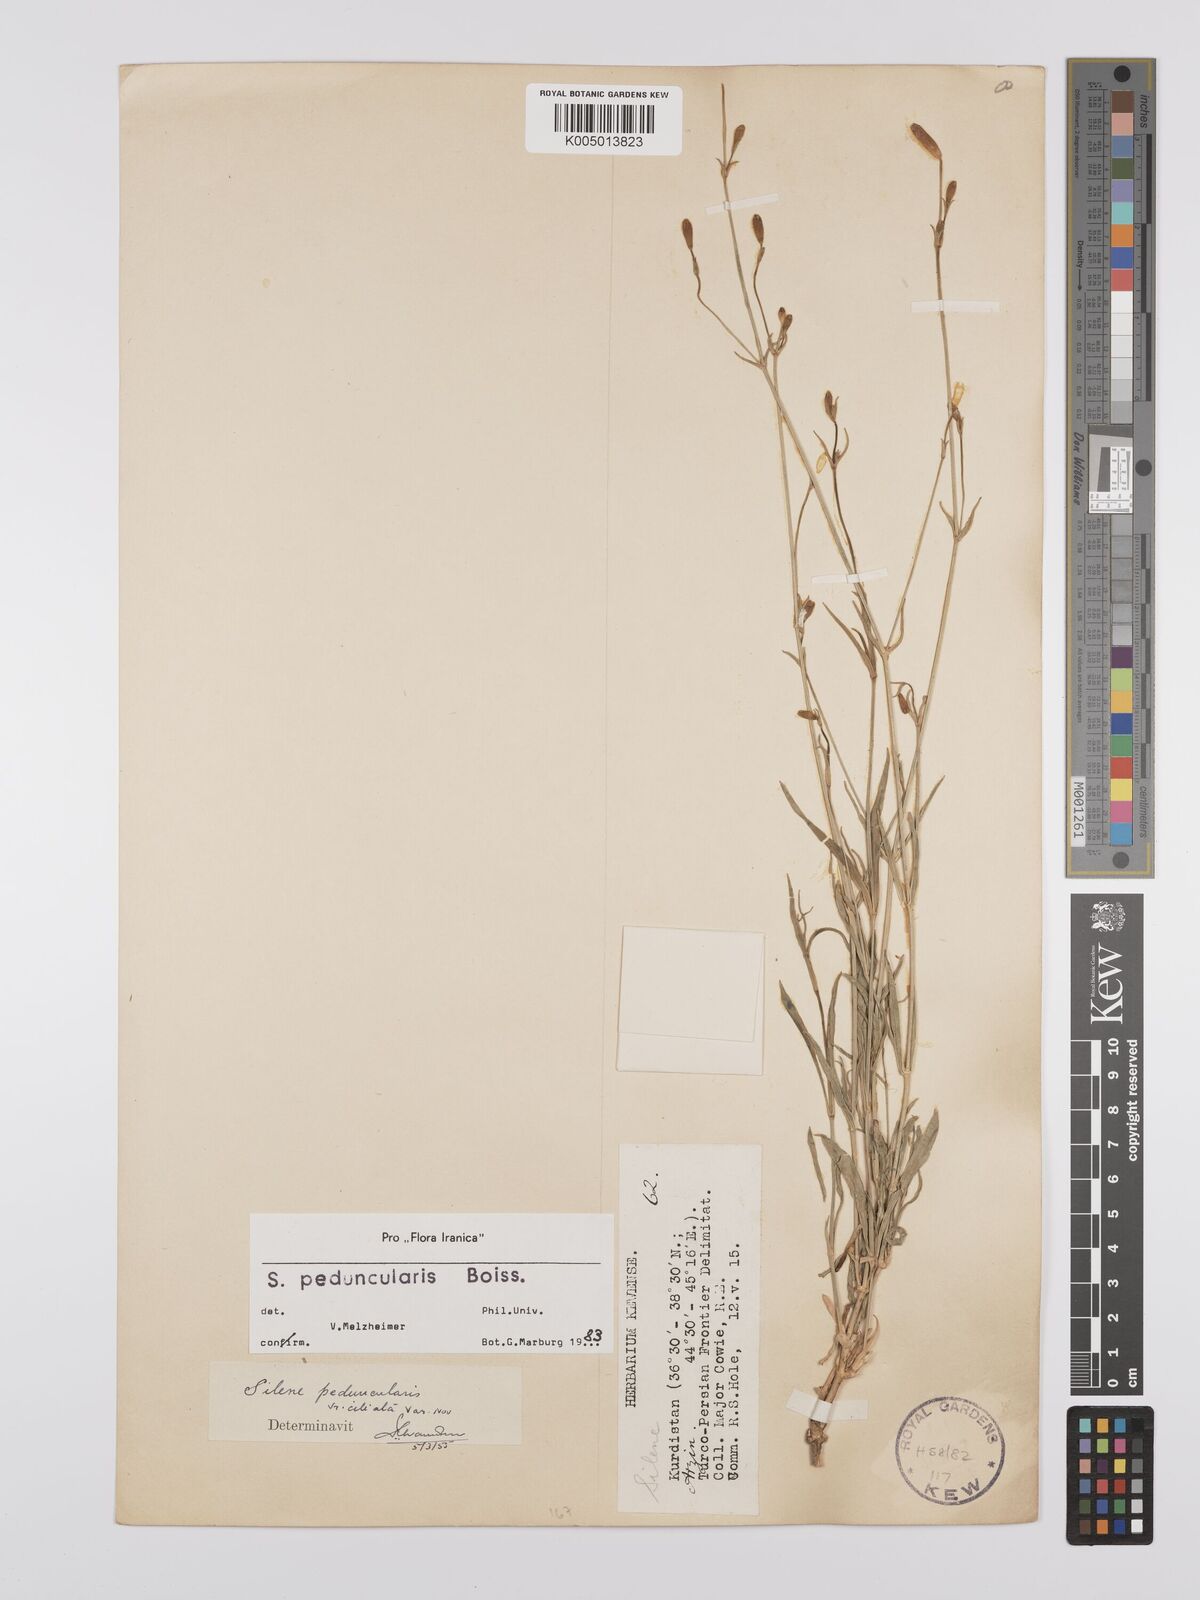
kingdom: Plantae
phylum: Tracheophyta
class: Magnoliopsida
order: Caryophyllales
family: Caryophyllaceae
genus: Silene
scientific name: Silene peduncularis
